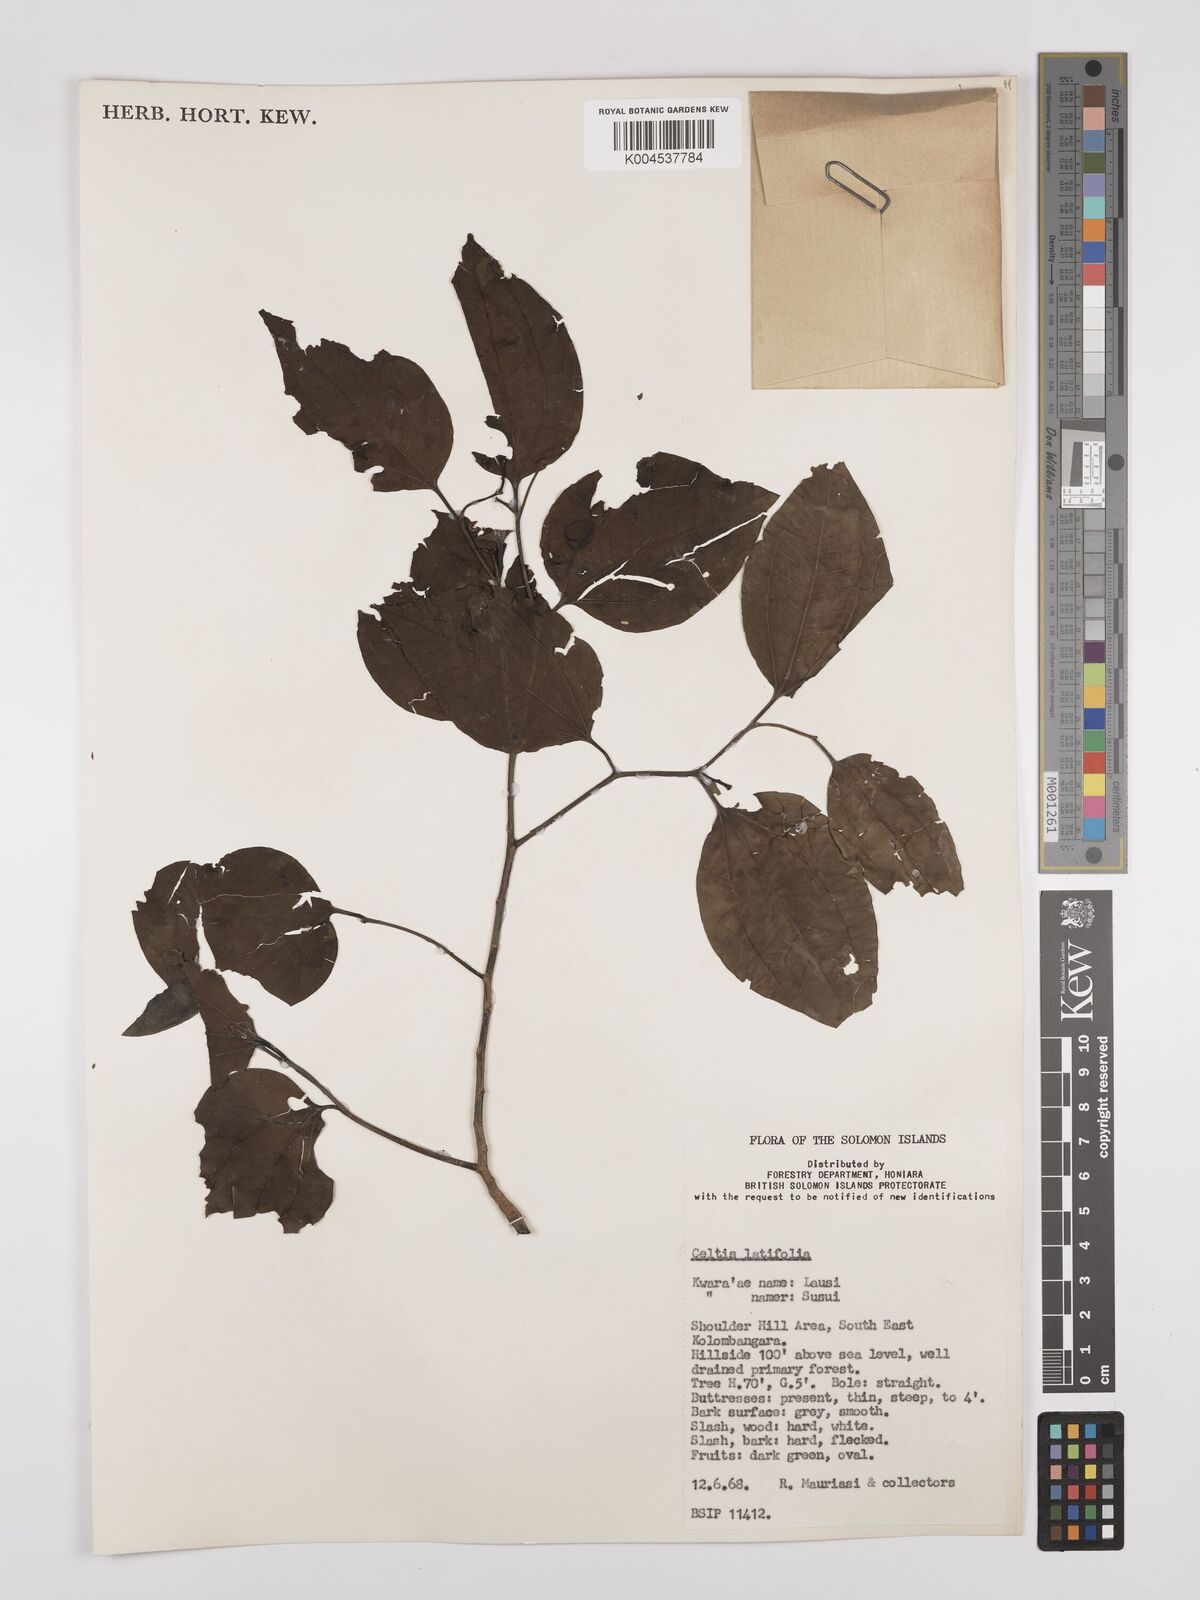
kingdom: Plantae
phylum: Tracheophyta
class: Magnoliopsida
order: Rosales
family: Cannabaceae
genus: Celtis
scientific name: Celtis latifolia
